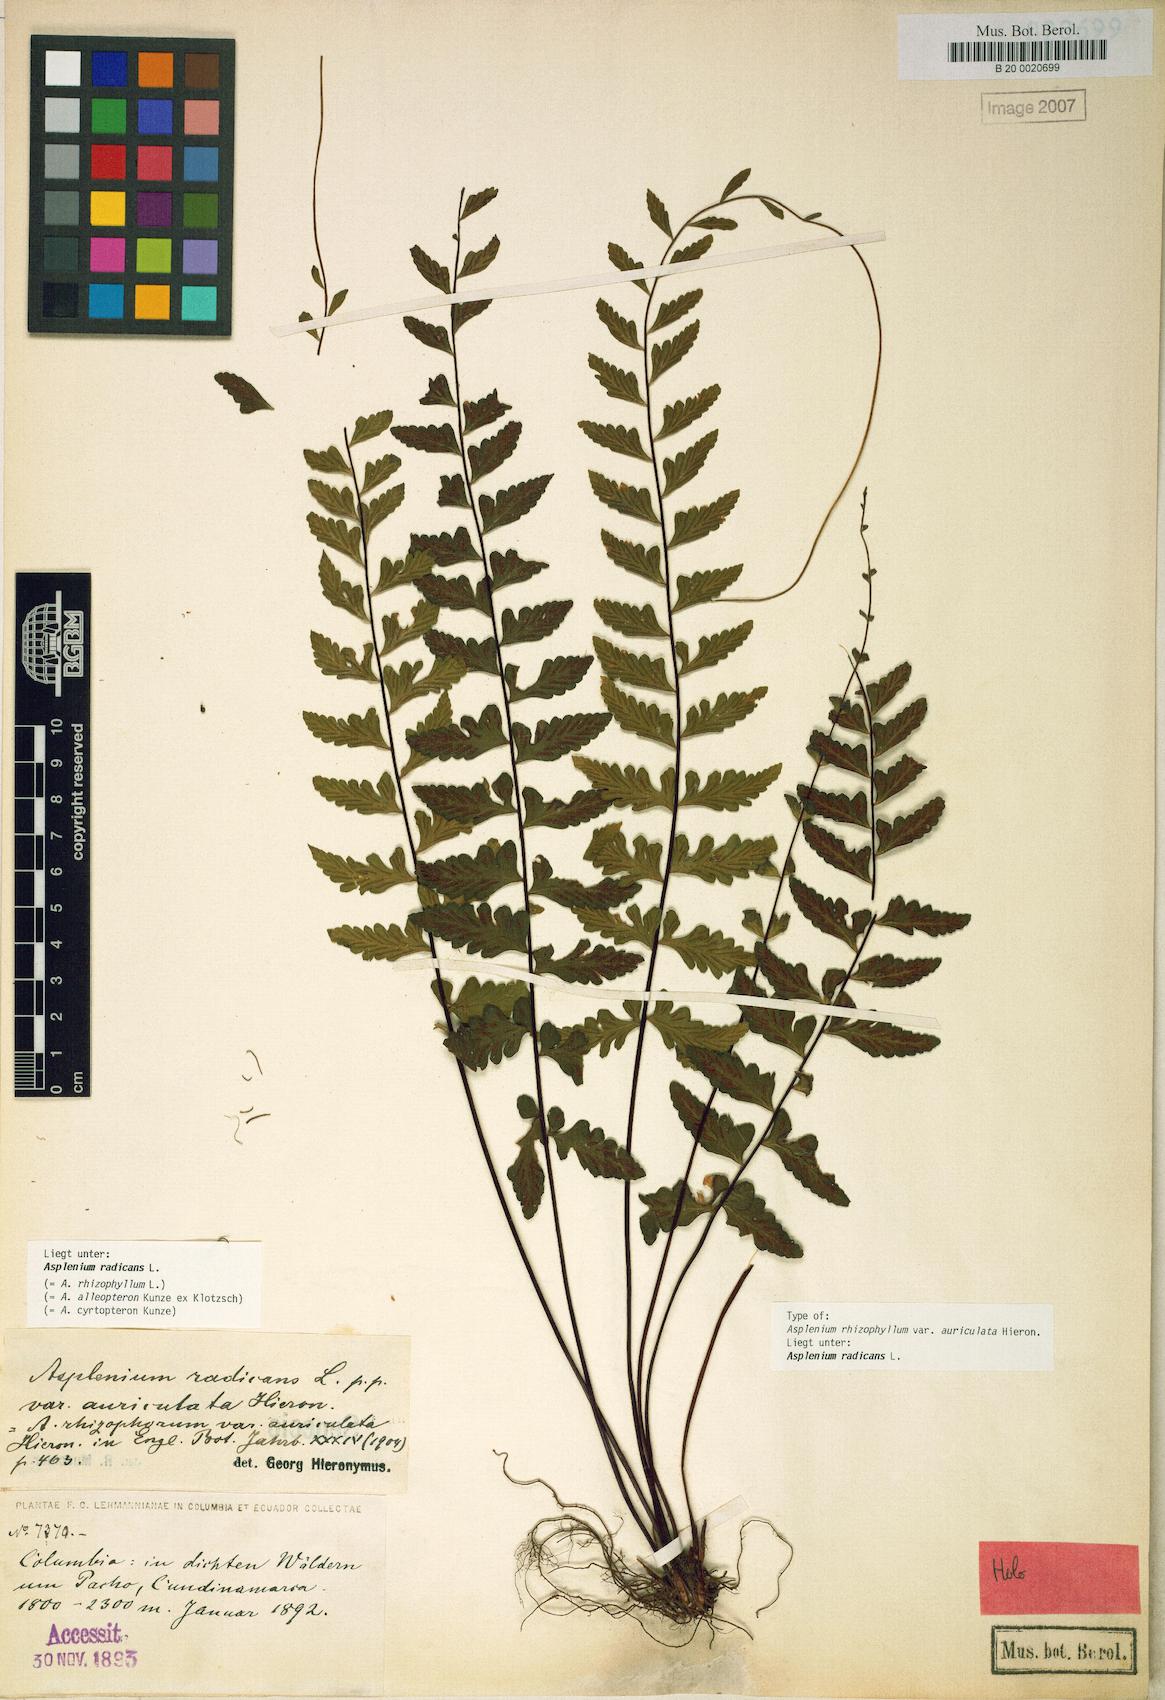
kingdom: Plantae
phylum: Tracheophyta
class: Polypodiopsida
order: Polypodiales
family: Aspleniaceae
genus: Asplenium
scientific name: Asplenium radicans
